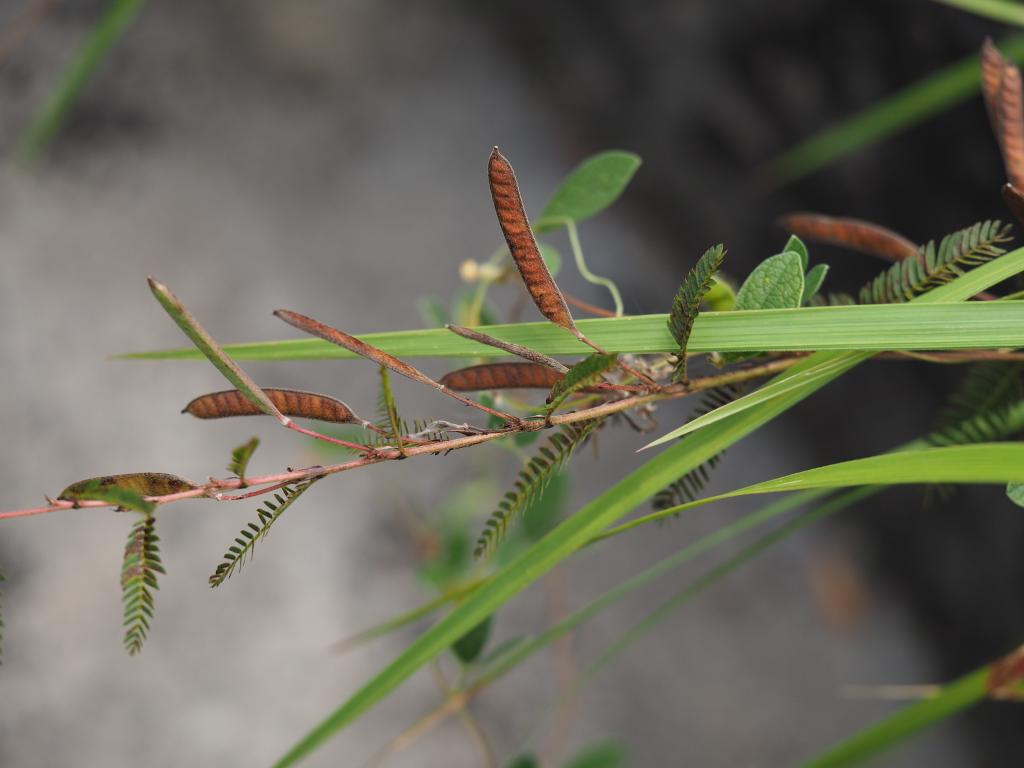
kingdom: Plantae
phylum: Tracheophyta
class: Magnoliopsida
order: Fabales
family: Fabaceae
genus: Chamaecrista
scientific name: Chamaecrista nictitans
